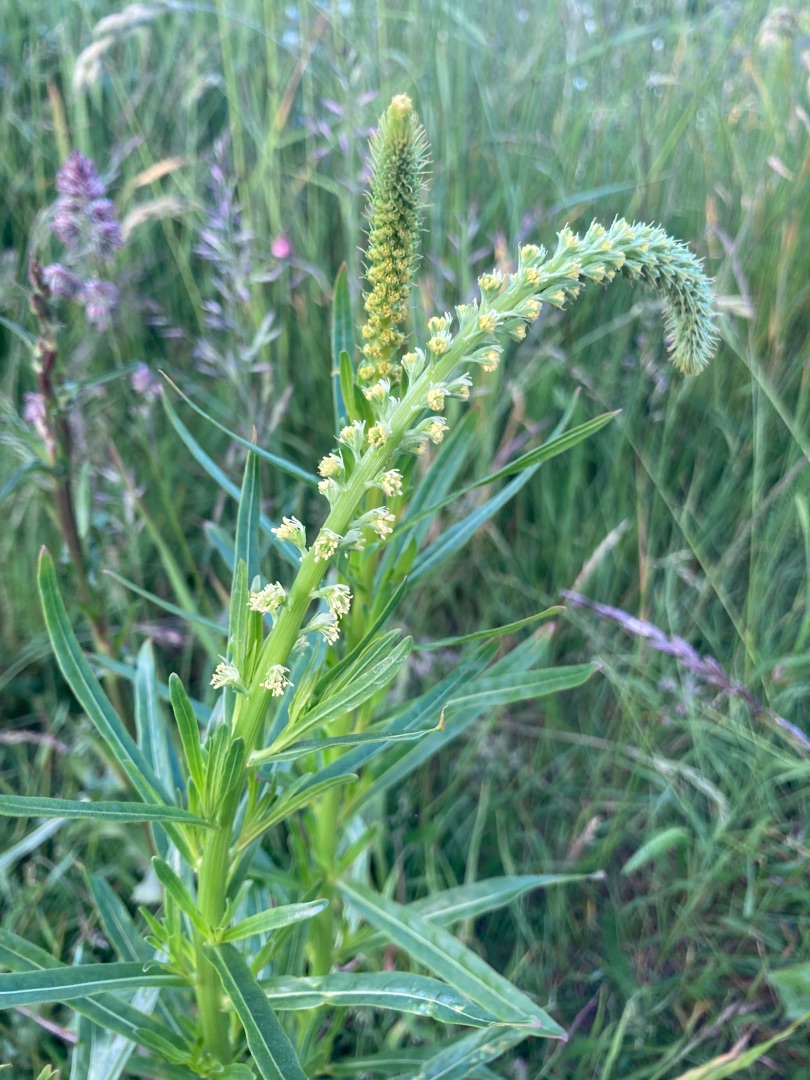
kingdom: Plantae
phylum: Tracheophyta
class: Magnoliopsida
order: Brassicales
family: Resedaceae
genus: Reseda
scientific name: Reseda luteola
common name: Farve-reseda
